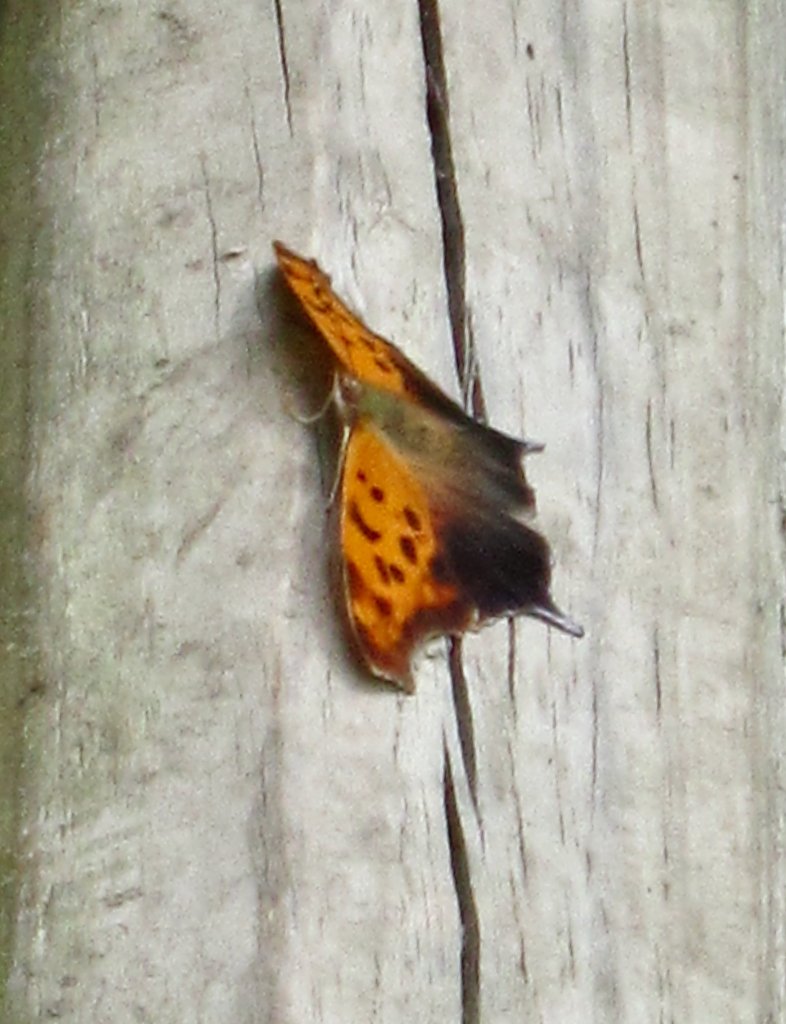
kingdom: Animalia
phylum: Arthropoda
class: Insecta
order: Lepidoptera
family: Nymphalidae
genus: Polygonia
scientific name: Polygonia interrogationis
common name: Question Mark
